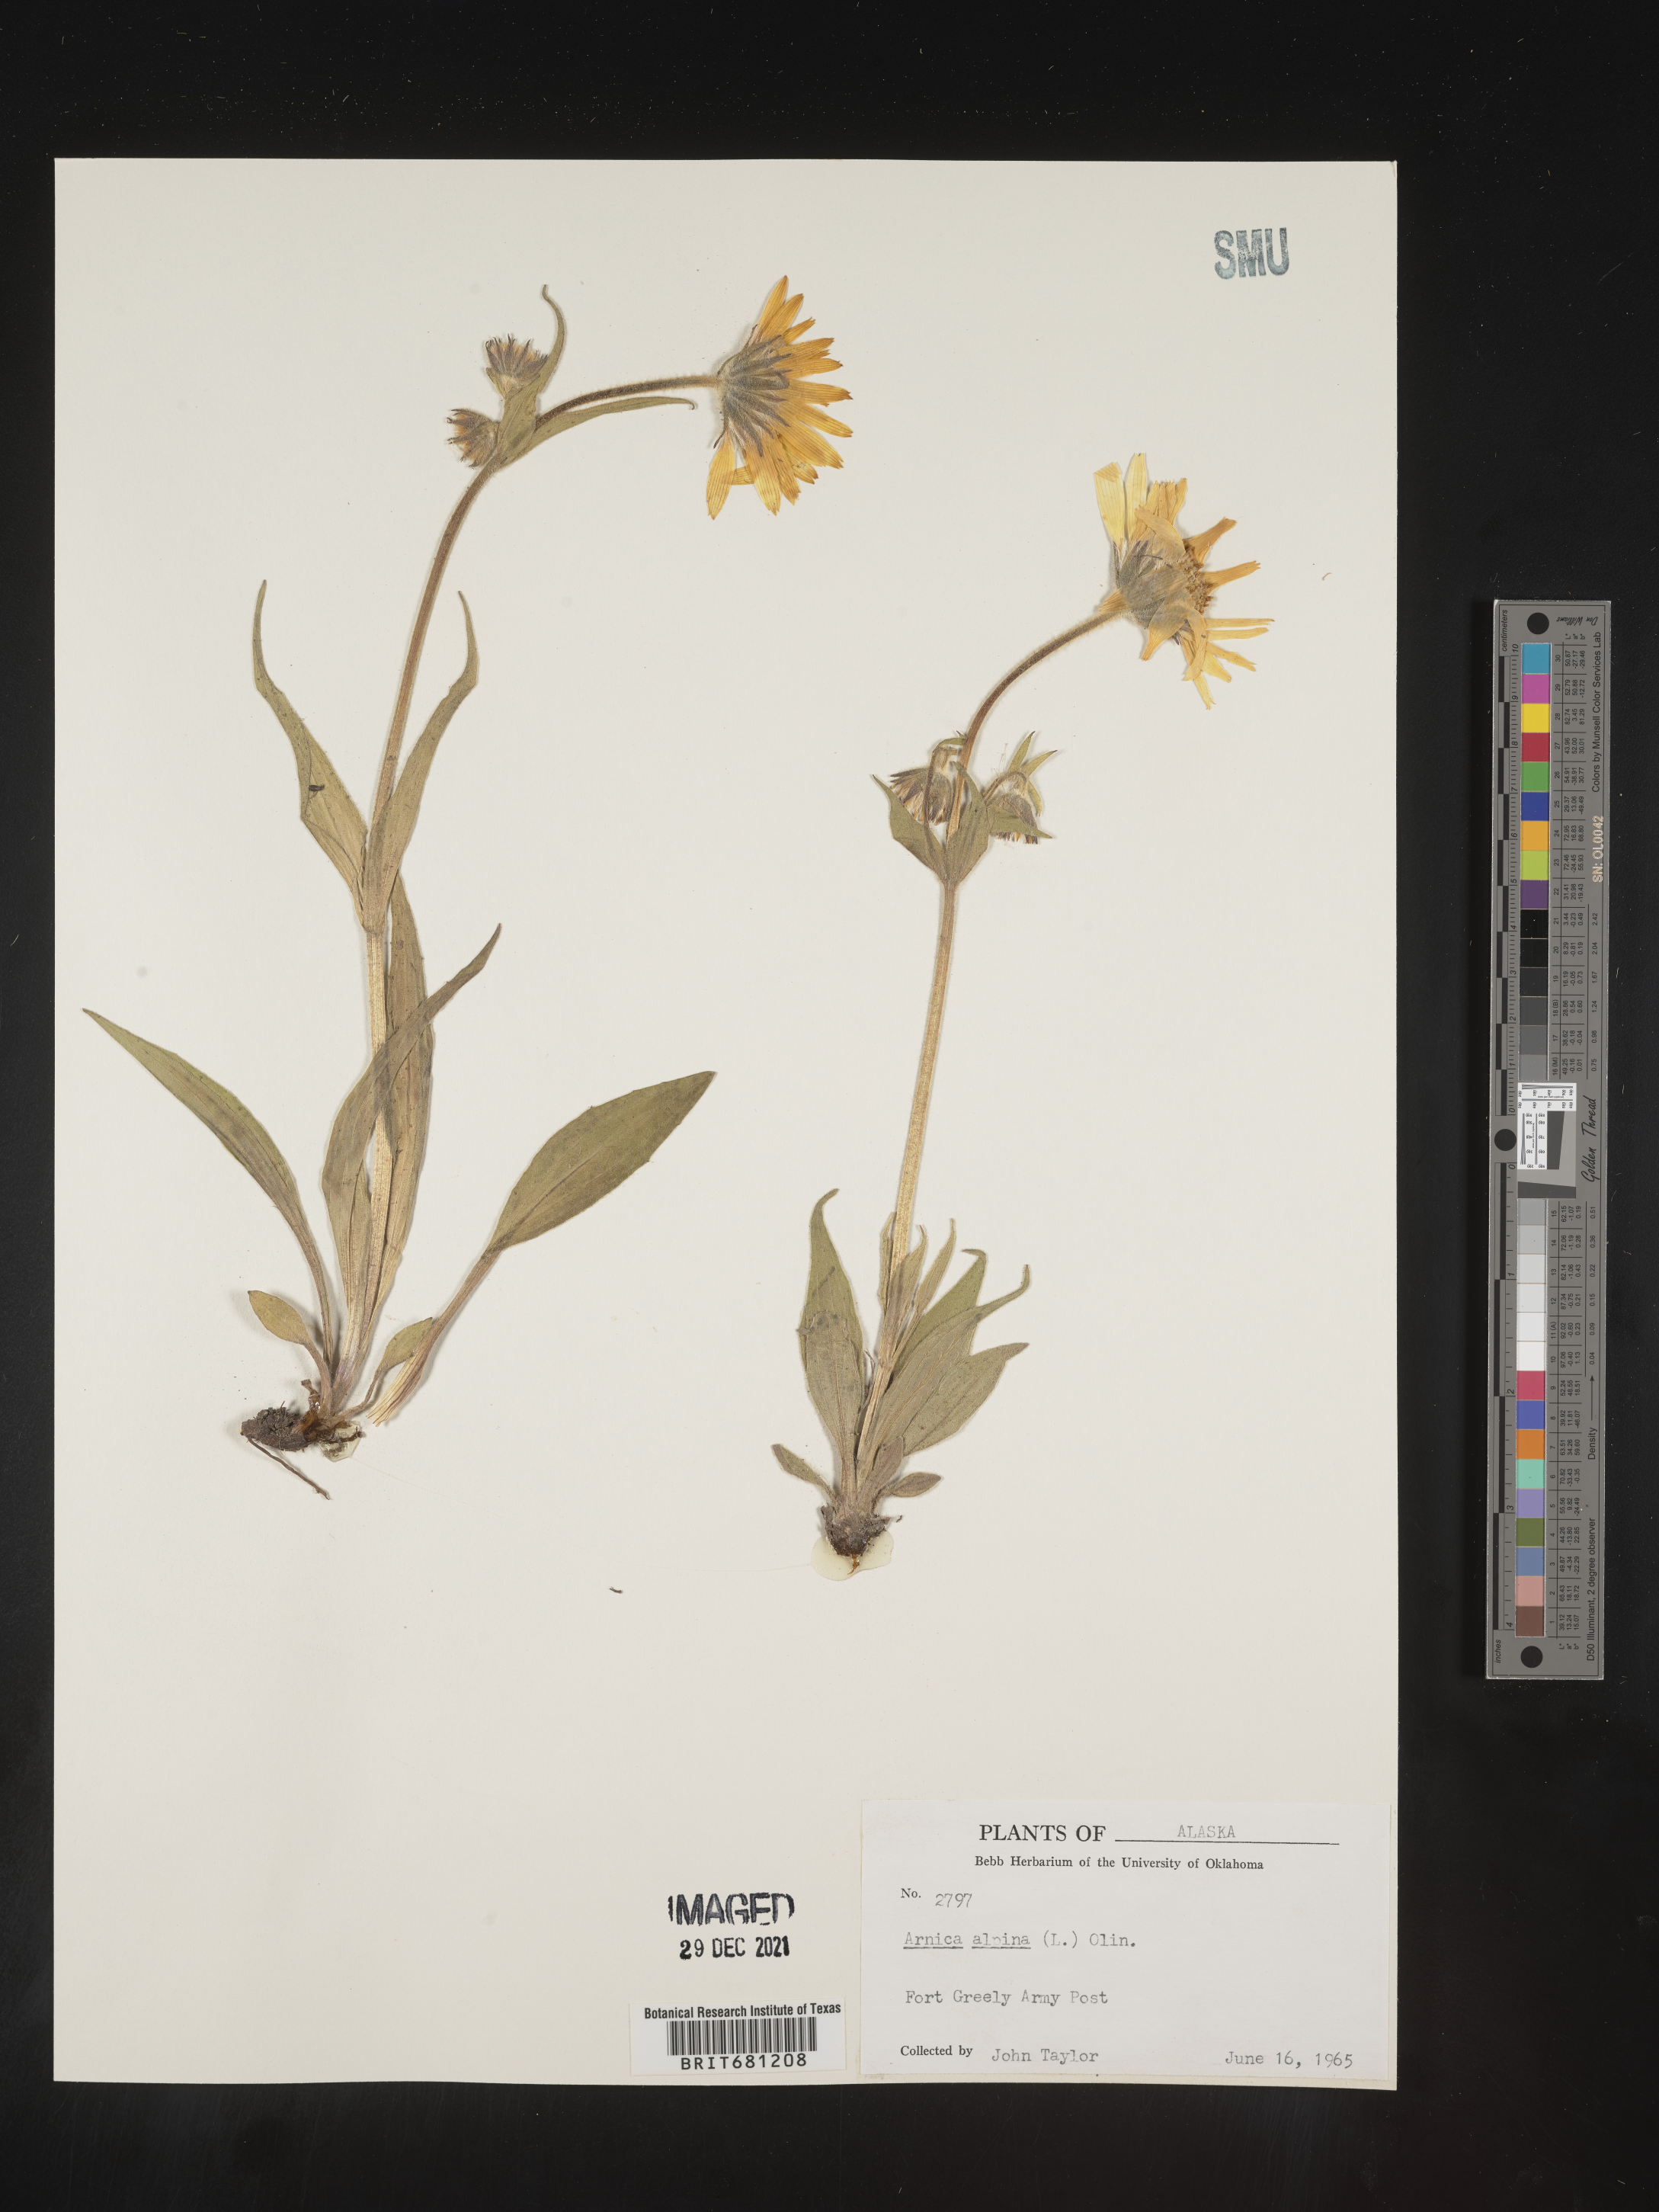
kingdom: Plantae
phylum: Tracheophyta
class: Magnoliopsida
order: Asterales
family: Asteraceae
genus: Arnica
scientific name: Arnica angustifolia
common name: Arctic arnica
